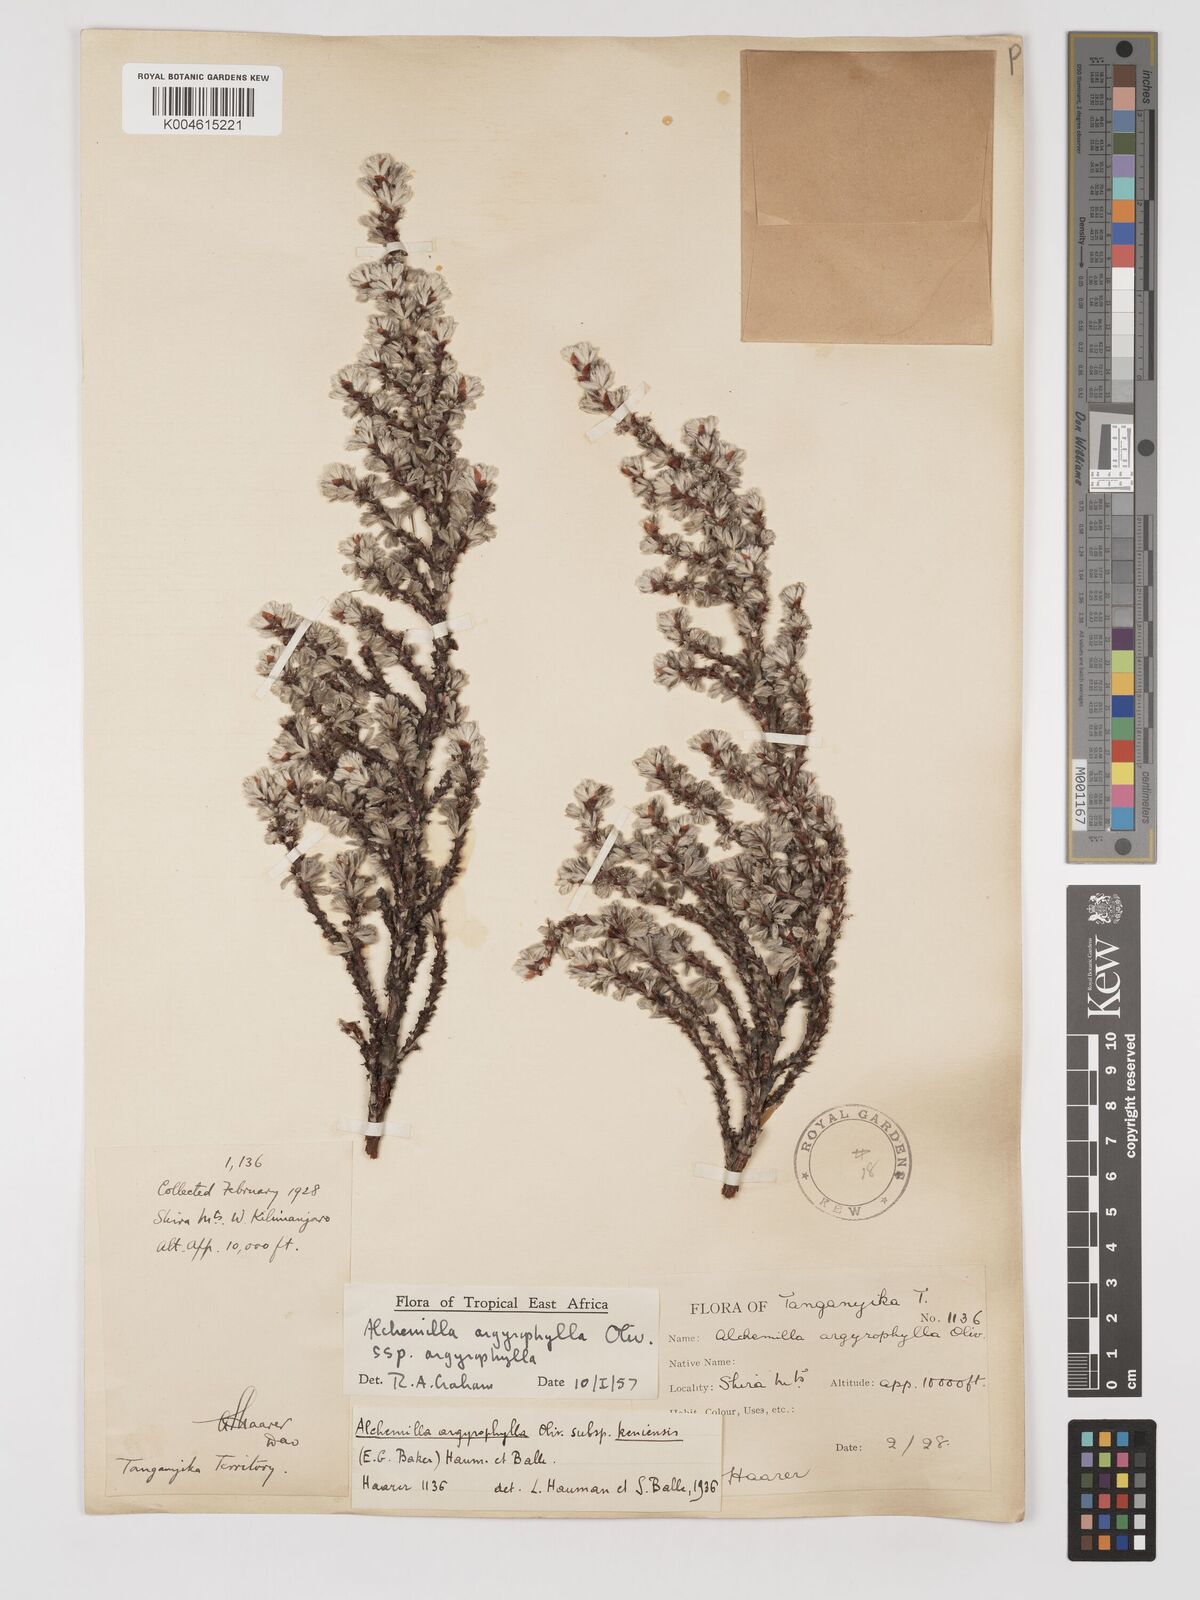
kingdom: Plantae
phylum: Tracheophyta
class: Magnoliopsida
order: Rosales
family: Rosaceae
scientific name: Rosaceae
